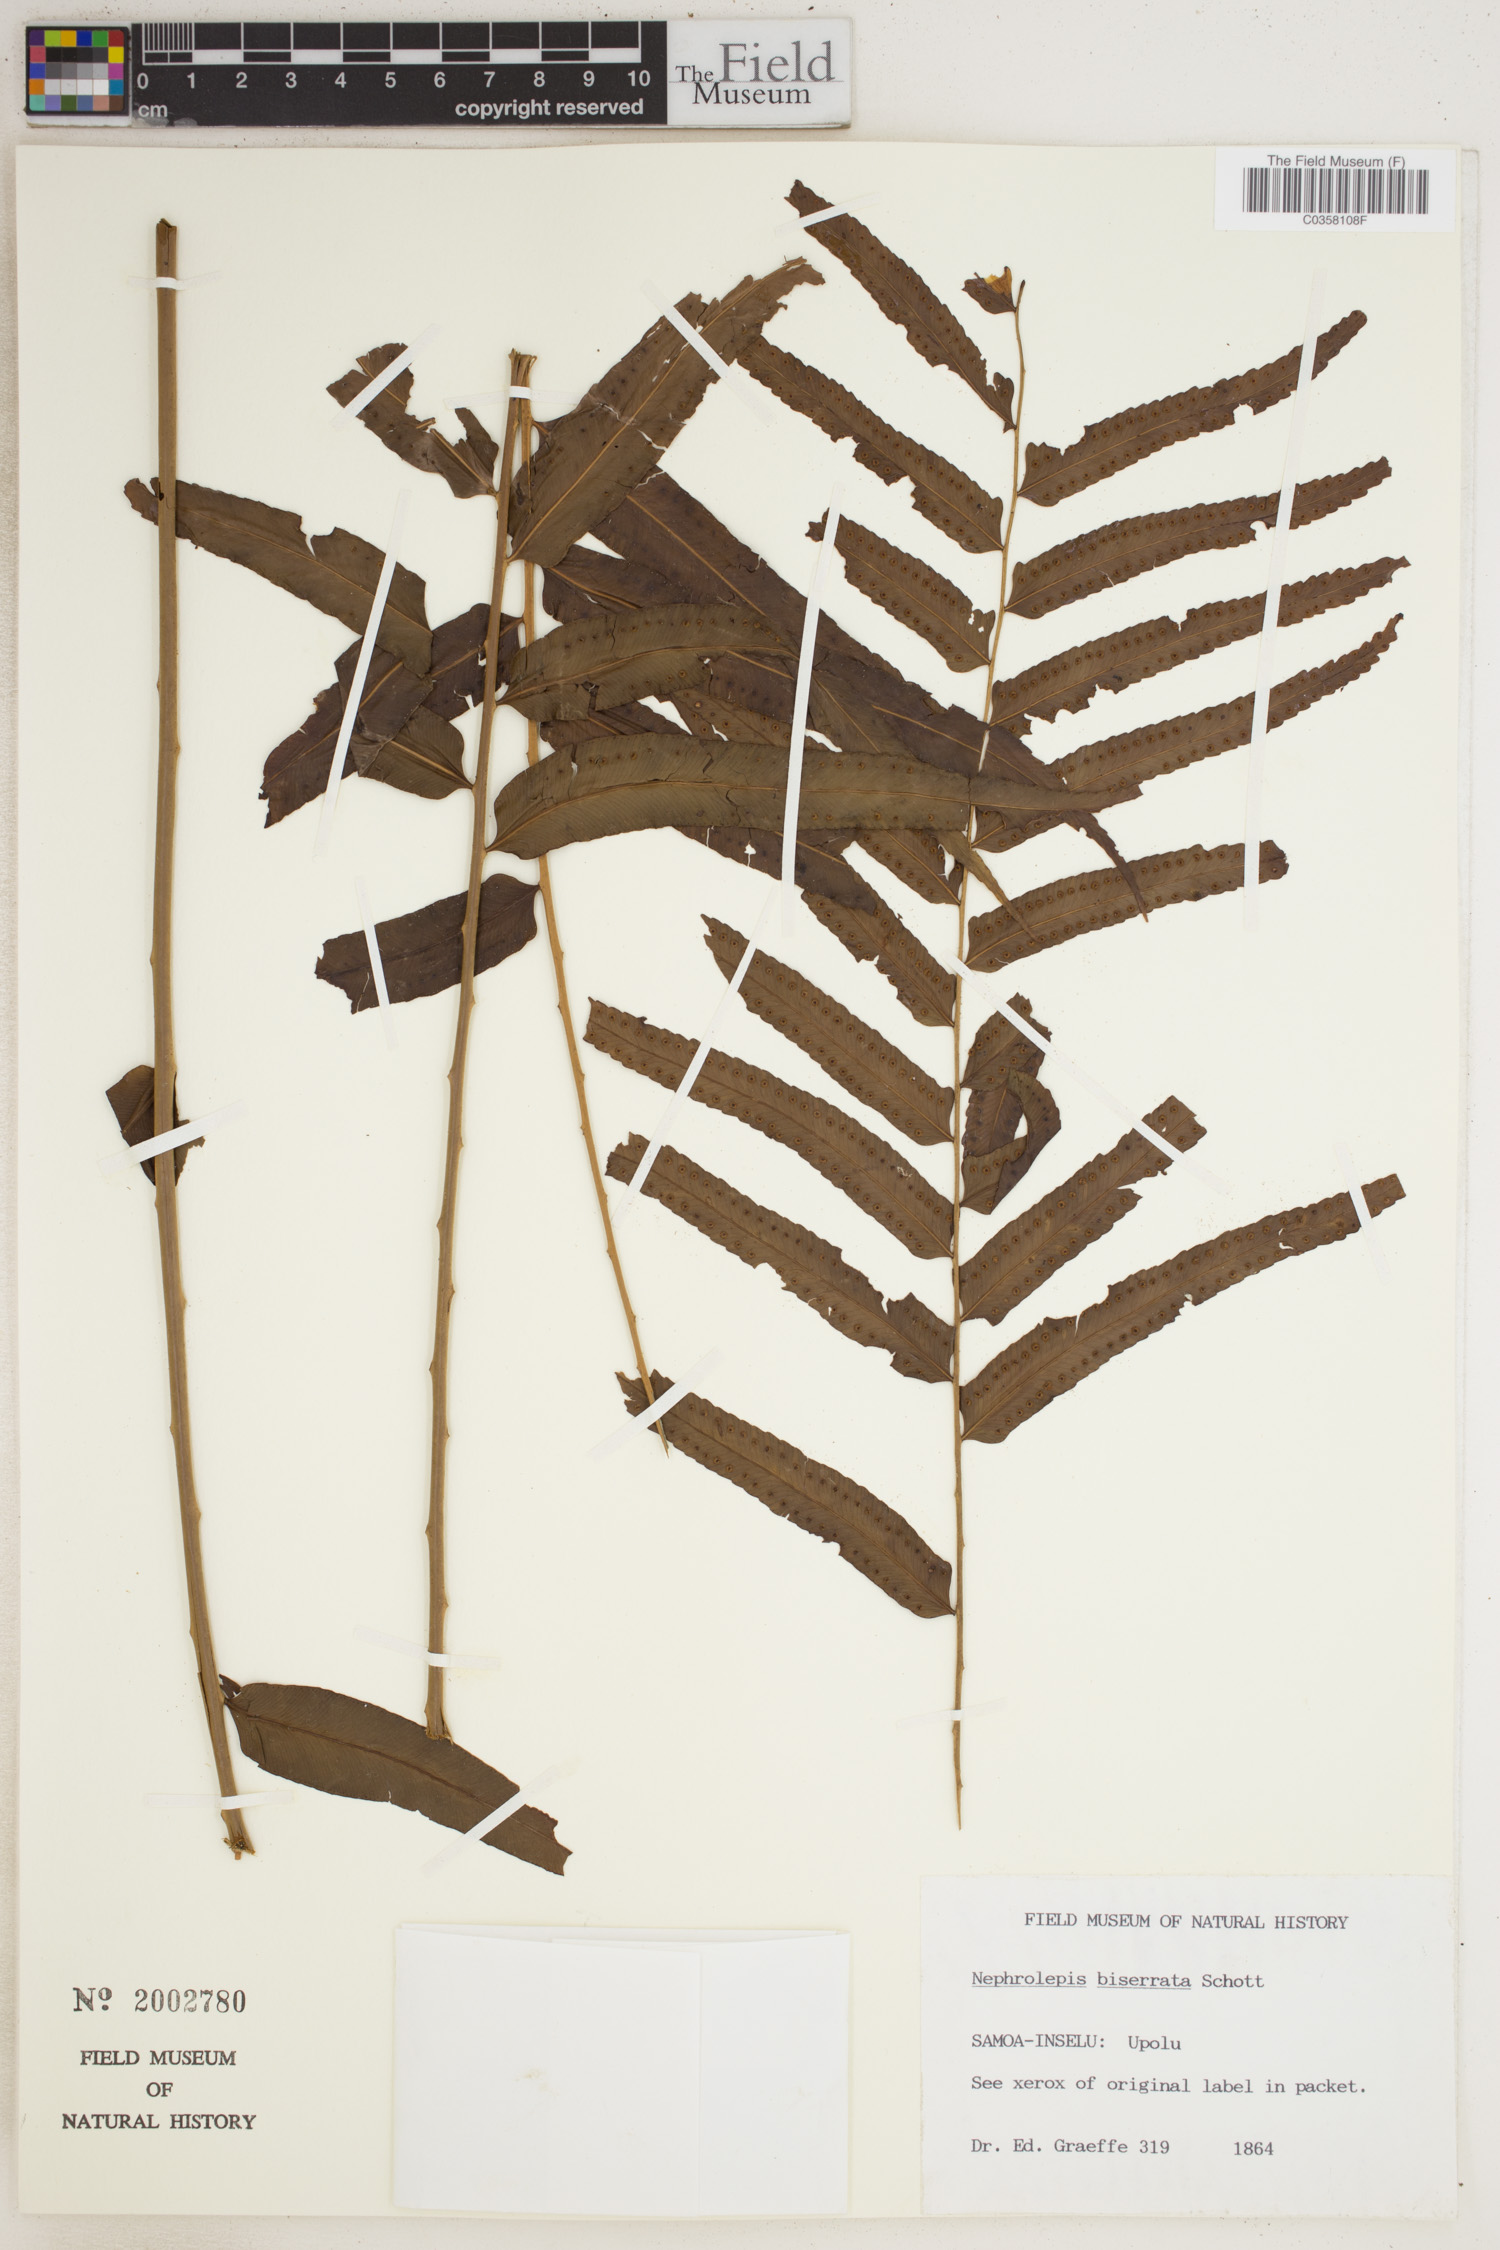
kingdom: Plantae
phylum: Tracheophyta
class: Polypodiopsida
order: Polypodiales
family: Nephrolepidaceae
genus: Nephrolepis
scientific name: Nephrolepis biserrata
